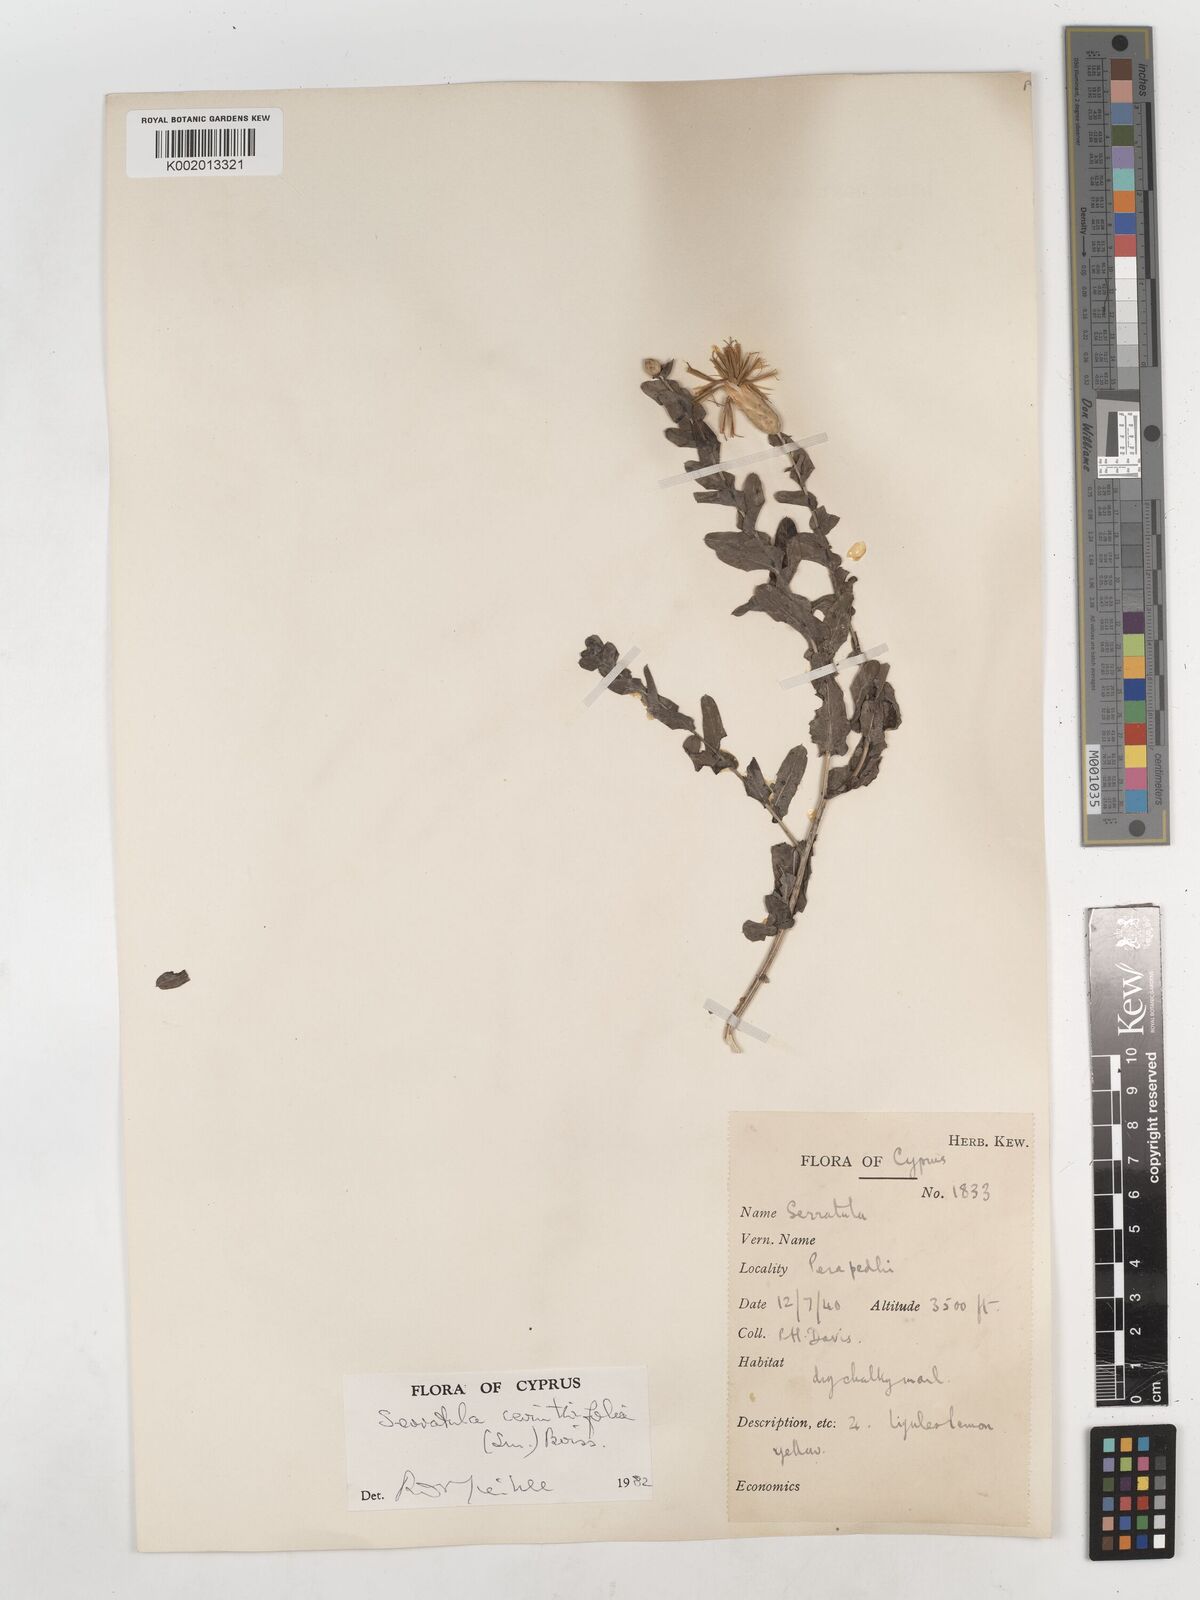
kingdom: Plantae
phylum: Tracheophyta
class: Magnoliopsida
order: Asterales
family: Asteraceae
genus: Klasea
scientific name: Klasea cerinthifolia
